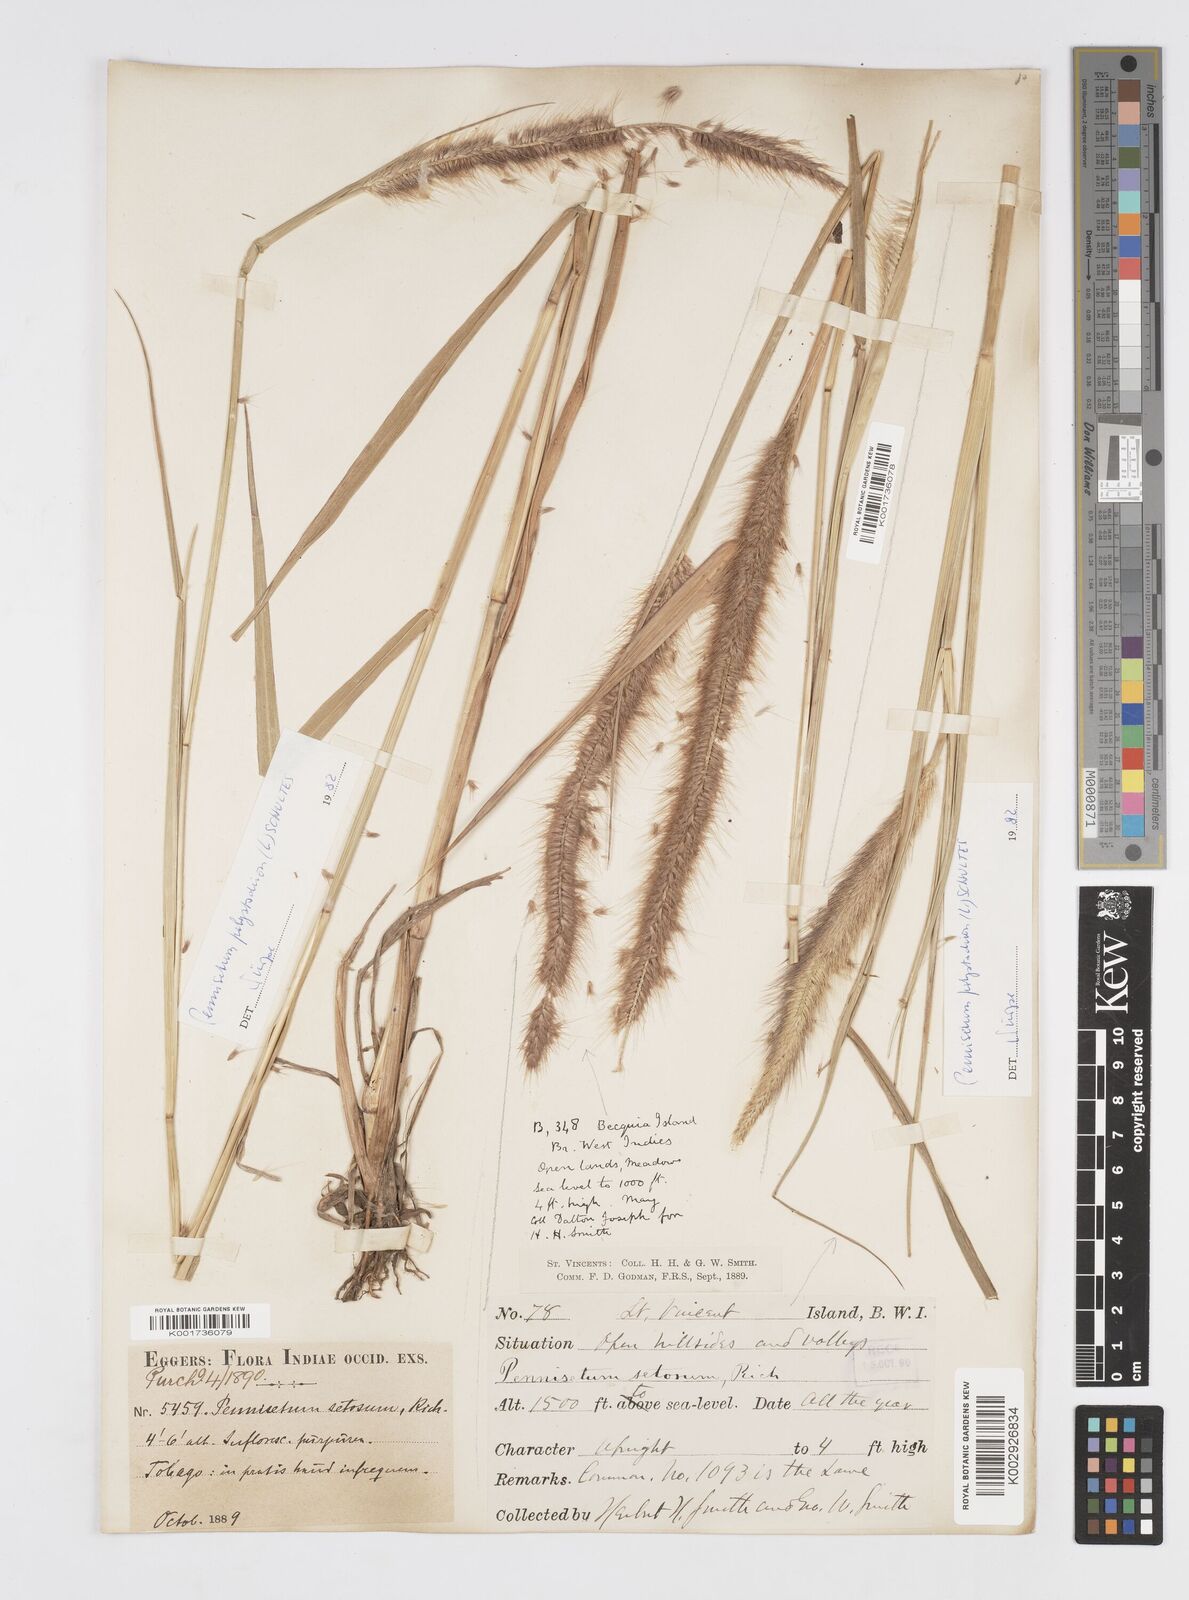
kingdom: Plantae
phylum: Tracheophyta
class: Liliopsida
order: Poales
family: Poaceae
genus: Cenchrus
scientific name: Cenchrus setosus
